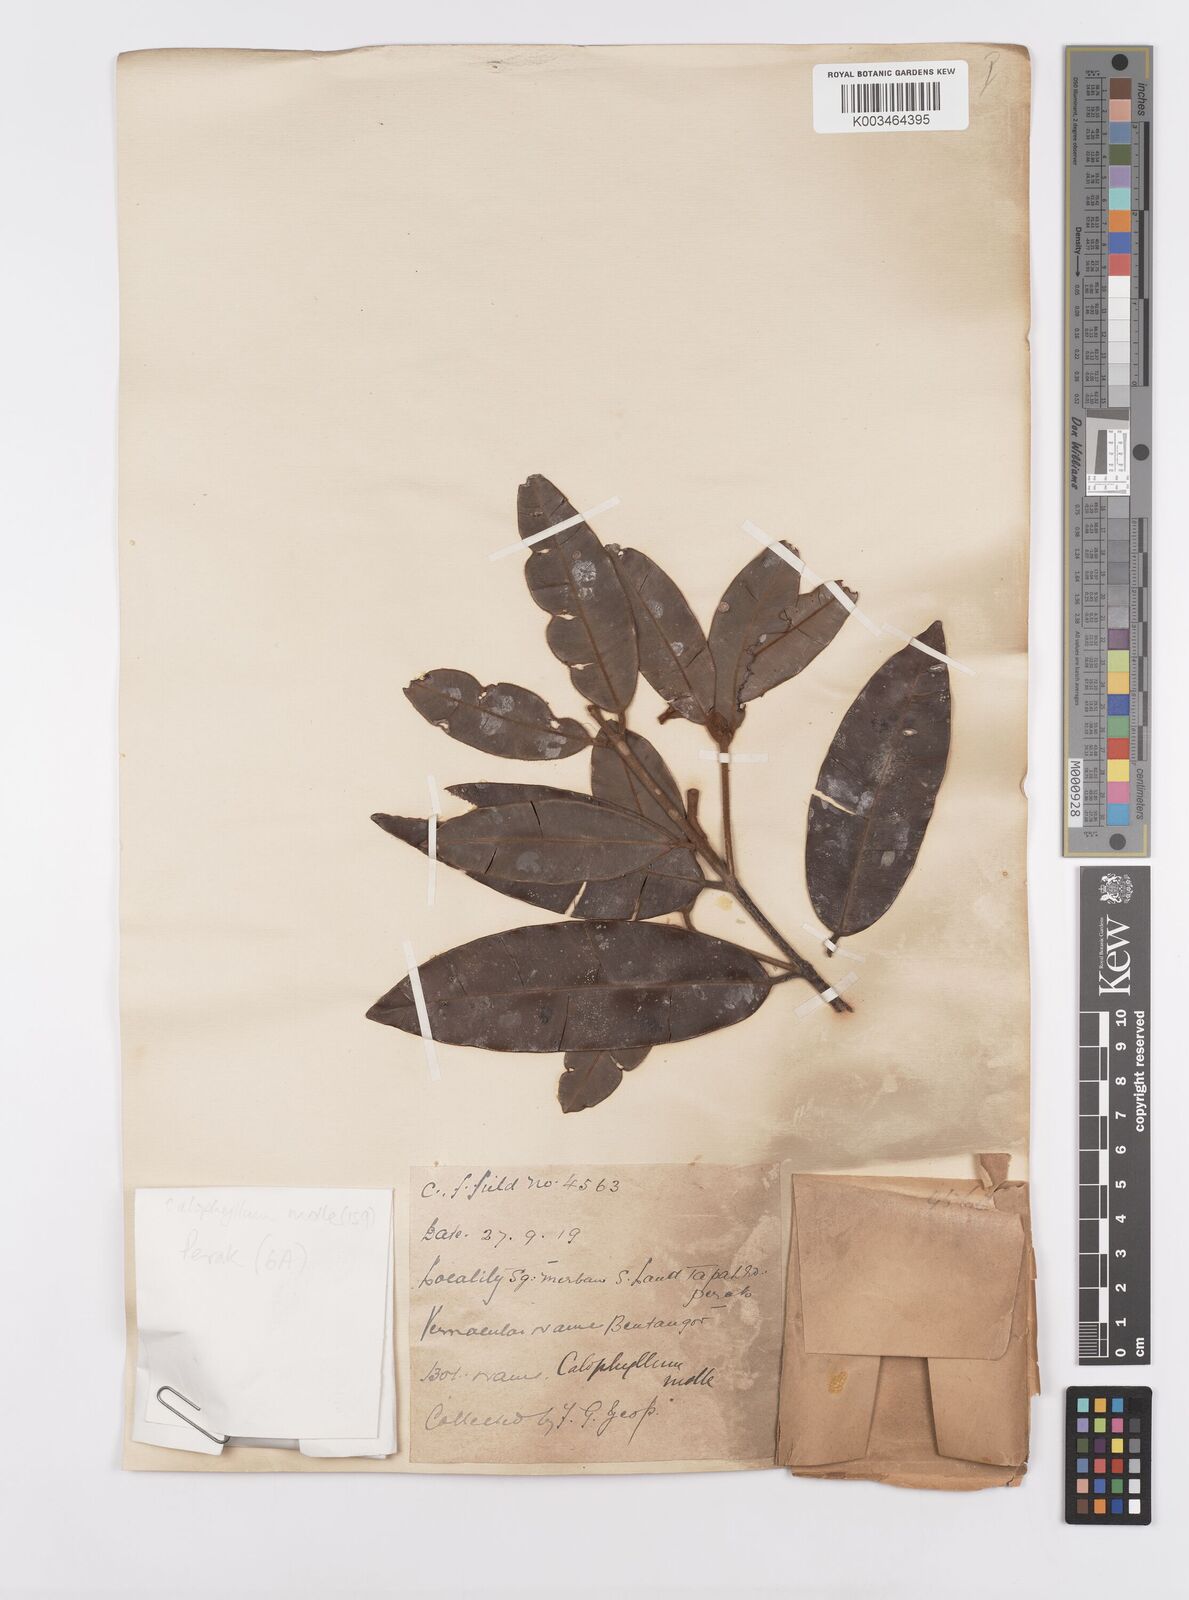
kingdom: Plantae
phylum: Tracheophyta
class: Magnoliopsida
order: Malpighiales
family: Calophyllaceae
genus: Calophyllum
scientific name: Calophyllum molle
